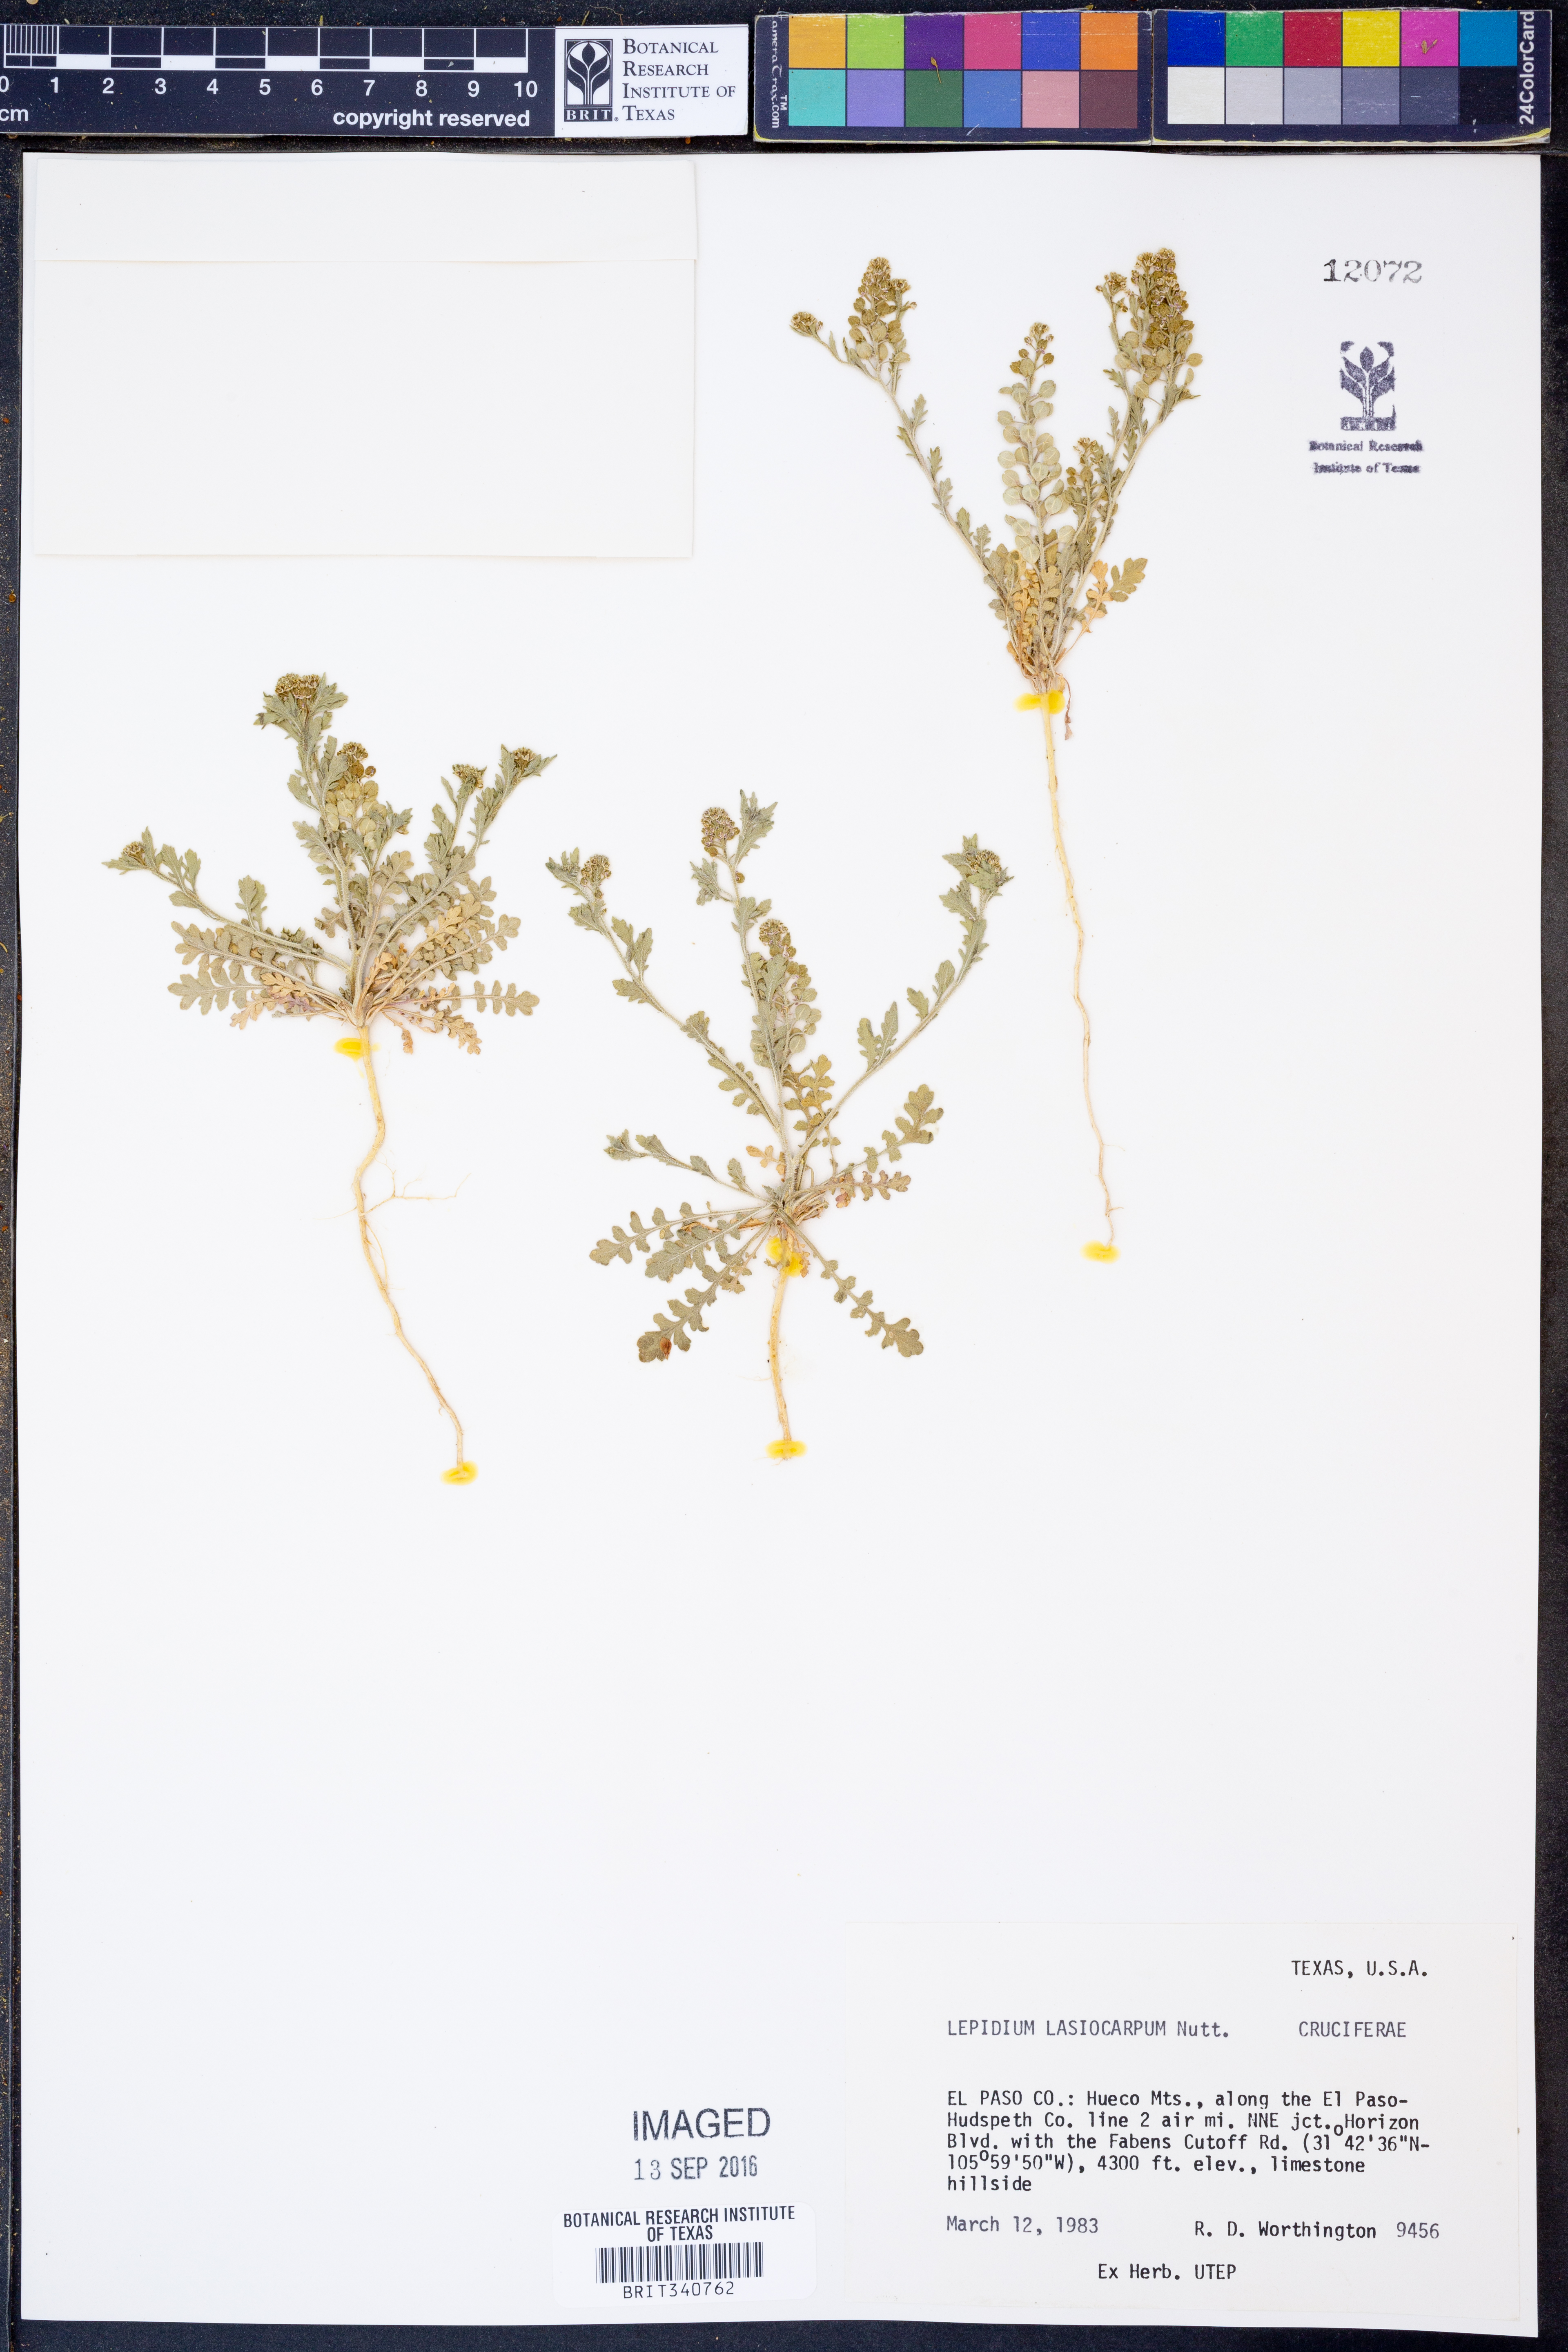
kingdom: Plantae
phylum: Tracheophyta
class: Magnoliopsida
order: Brassicales
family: Brassicaceae
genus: Lepidium
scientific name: Lepidium lasiocarpum
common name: Hairy-pod pepperwort
